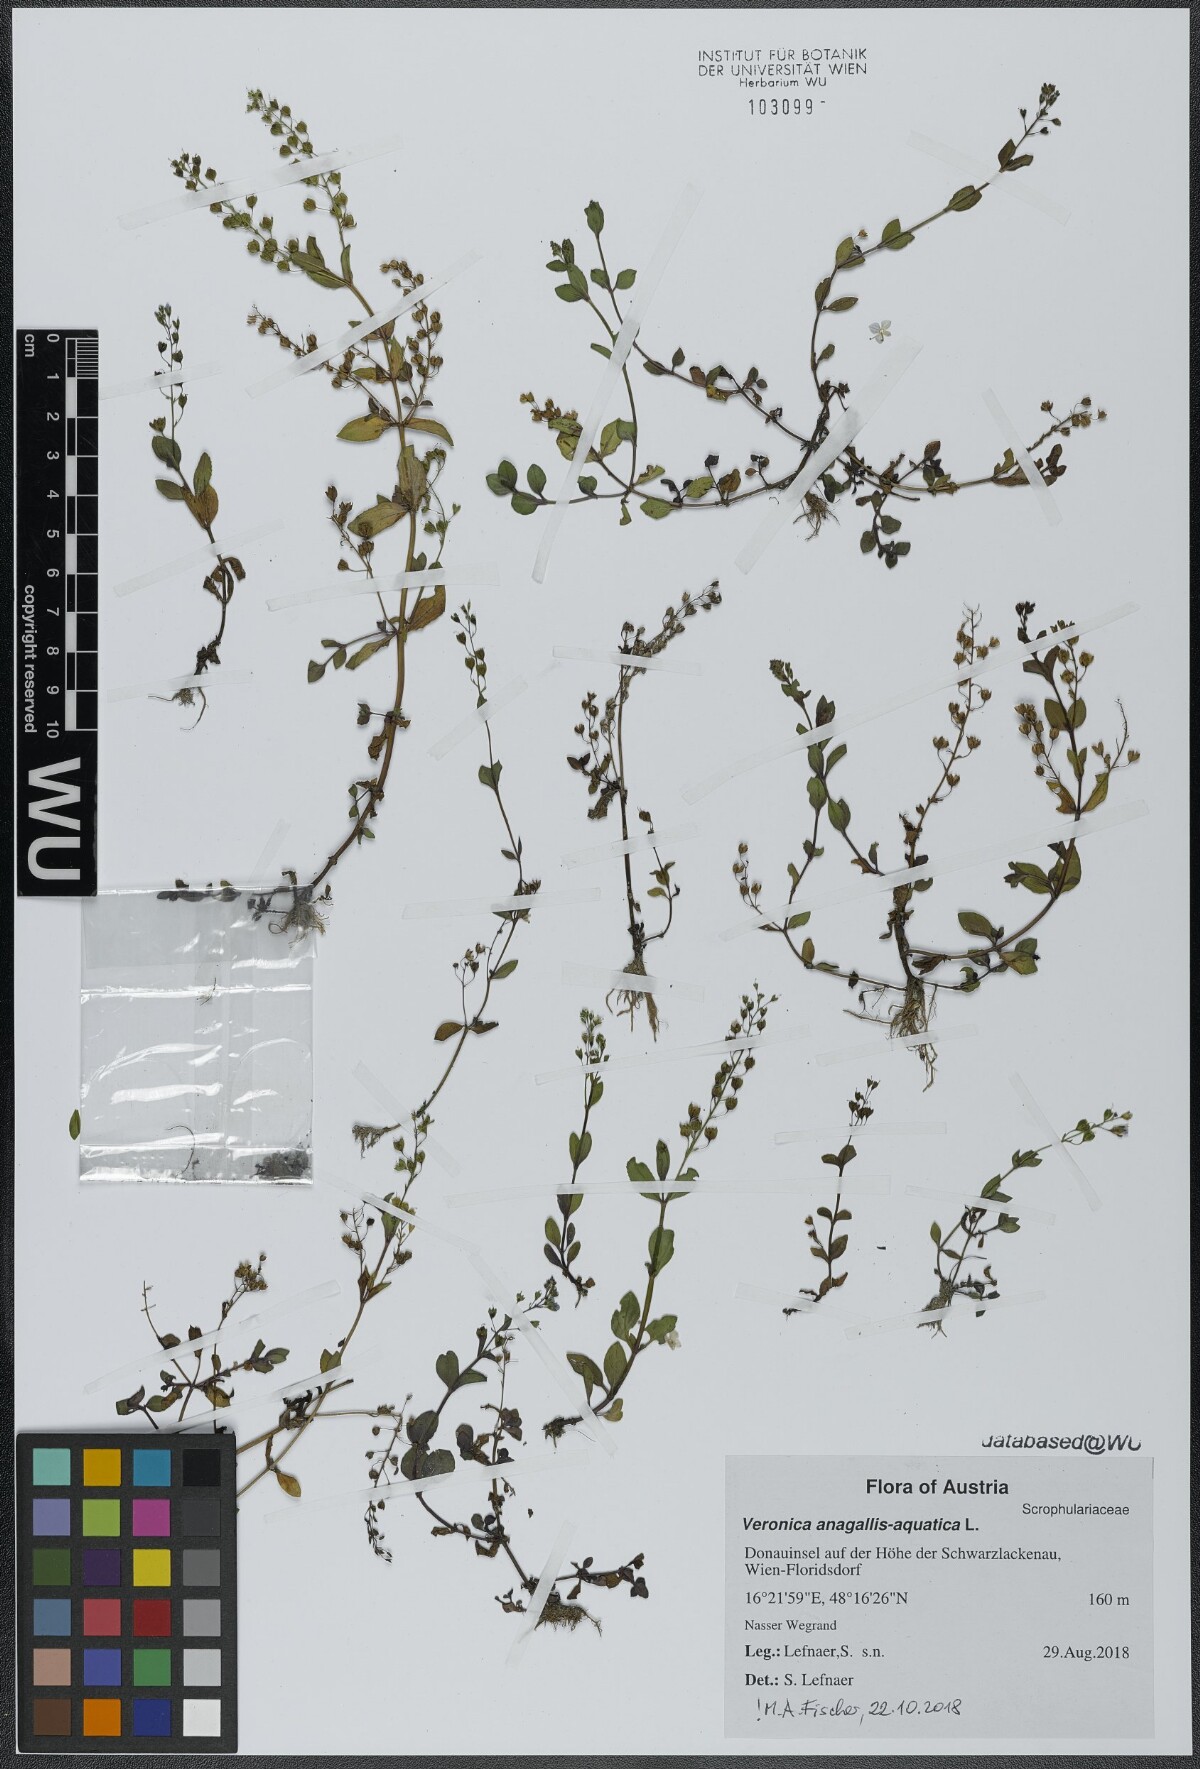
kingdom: Plantae
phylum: Tracheophyta
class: Magnoliopsida
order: Lamiales
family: Plantaginaceae
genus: Veronica
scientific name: Veronica anagallis-aquatica
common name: Water speedwell
